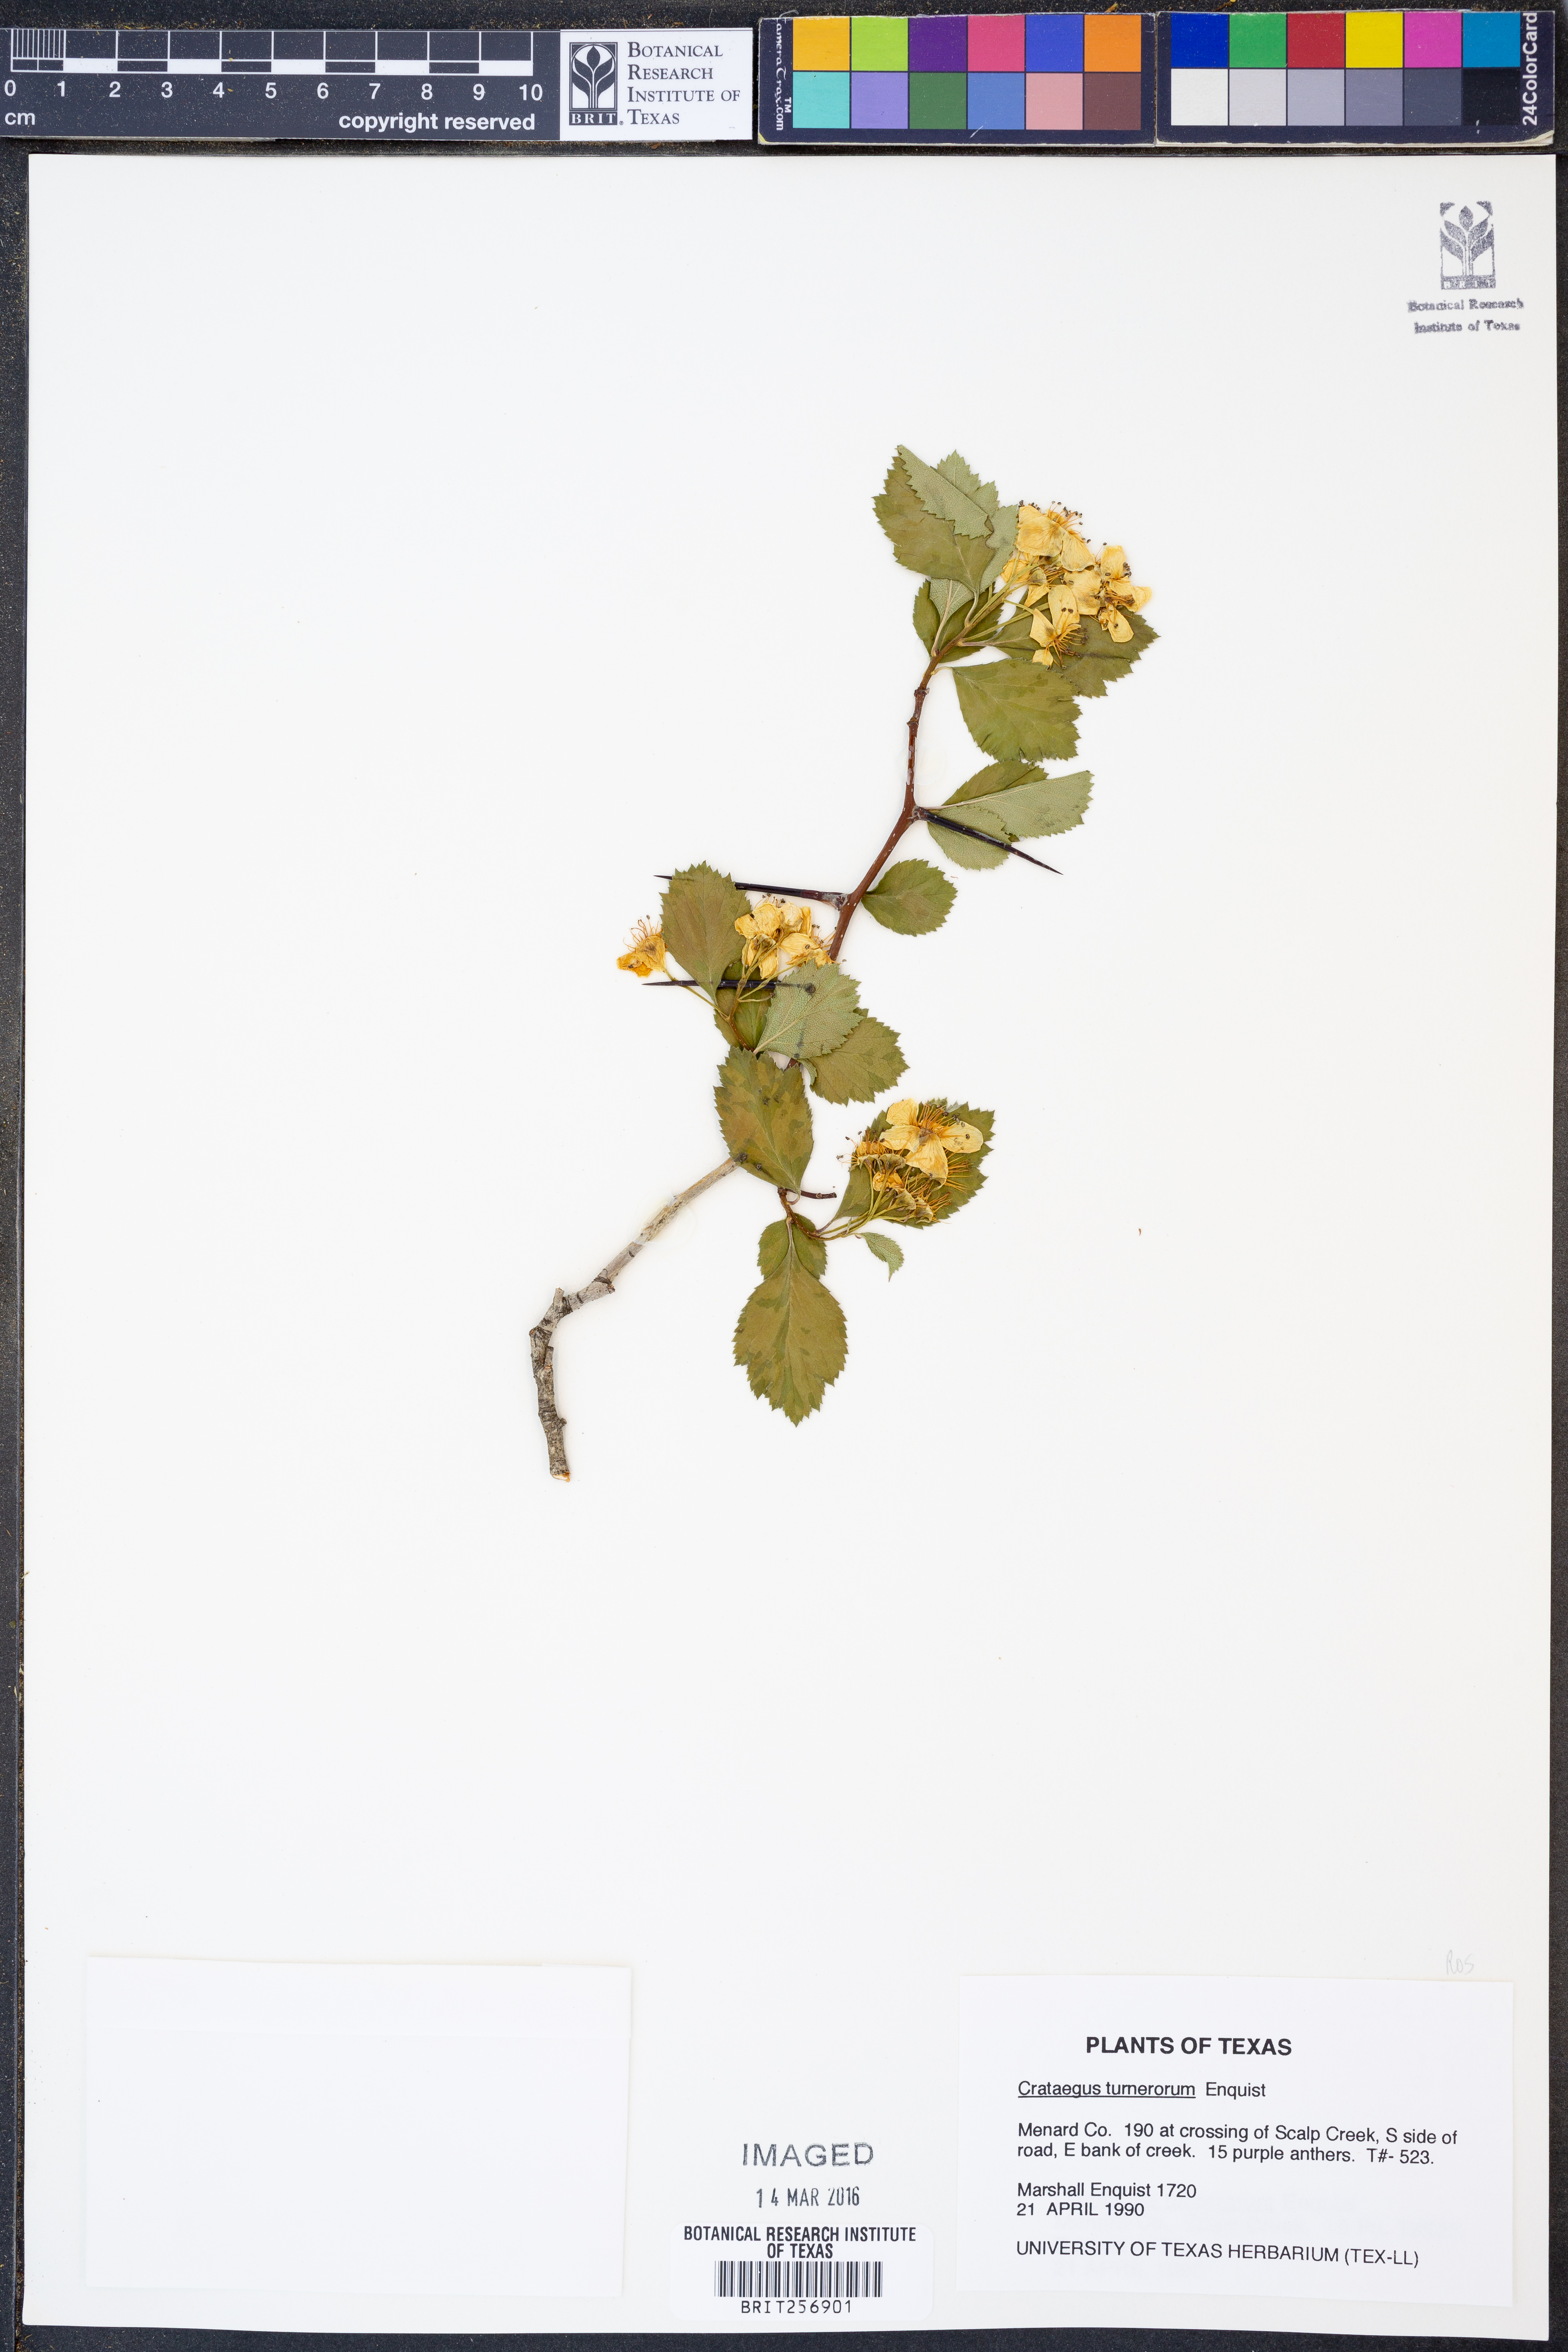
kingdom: Plantae
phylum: Tracheophyta
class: Magnoliopsida
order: Rosales
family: Rosaceae
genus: Crataegus
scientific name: Crataegus turnerorum
